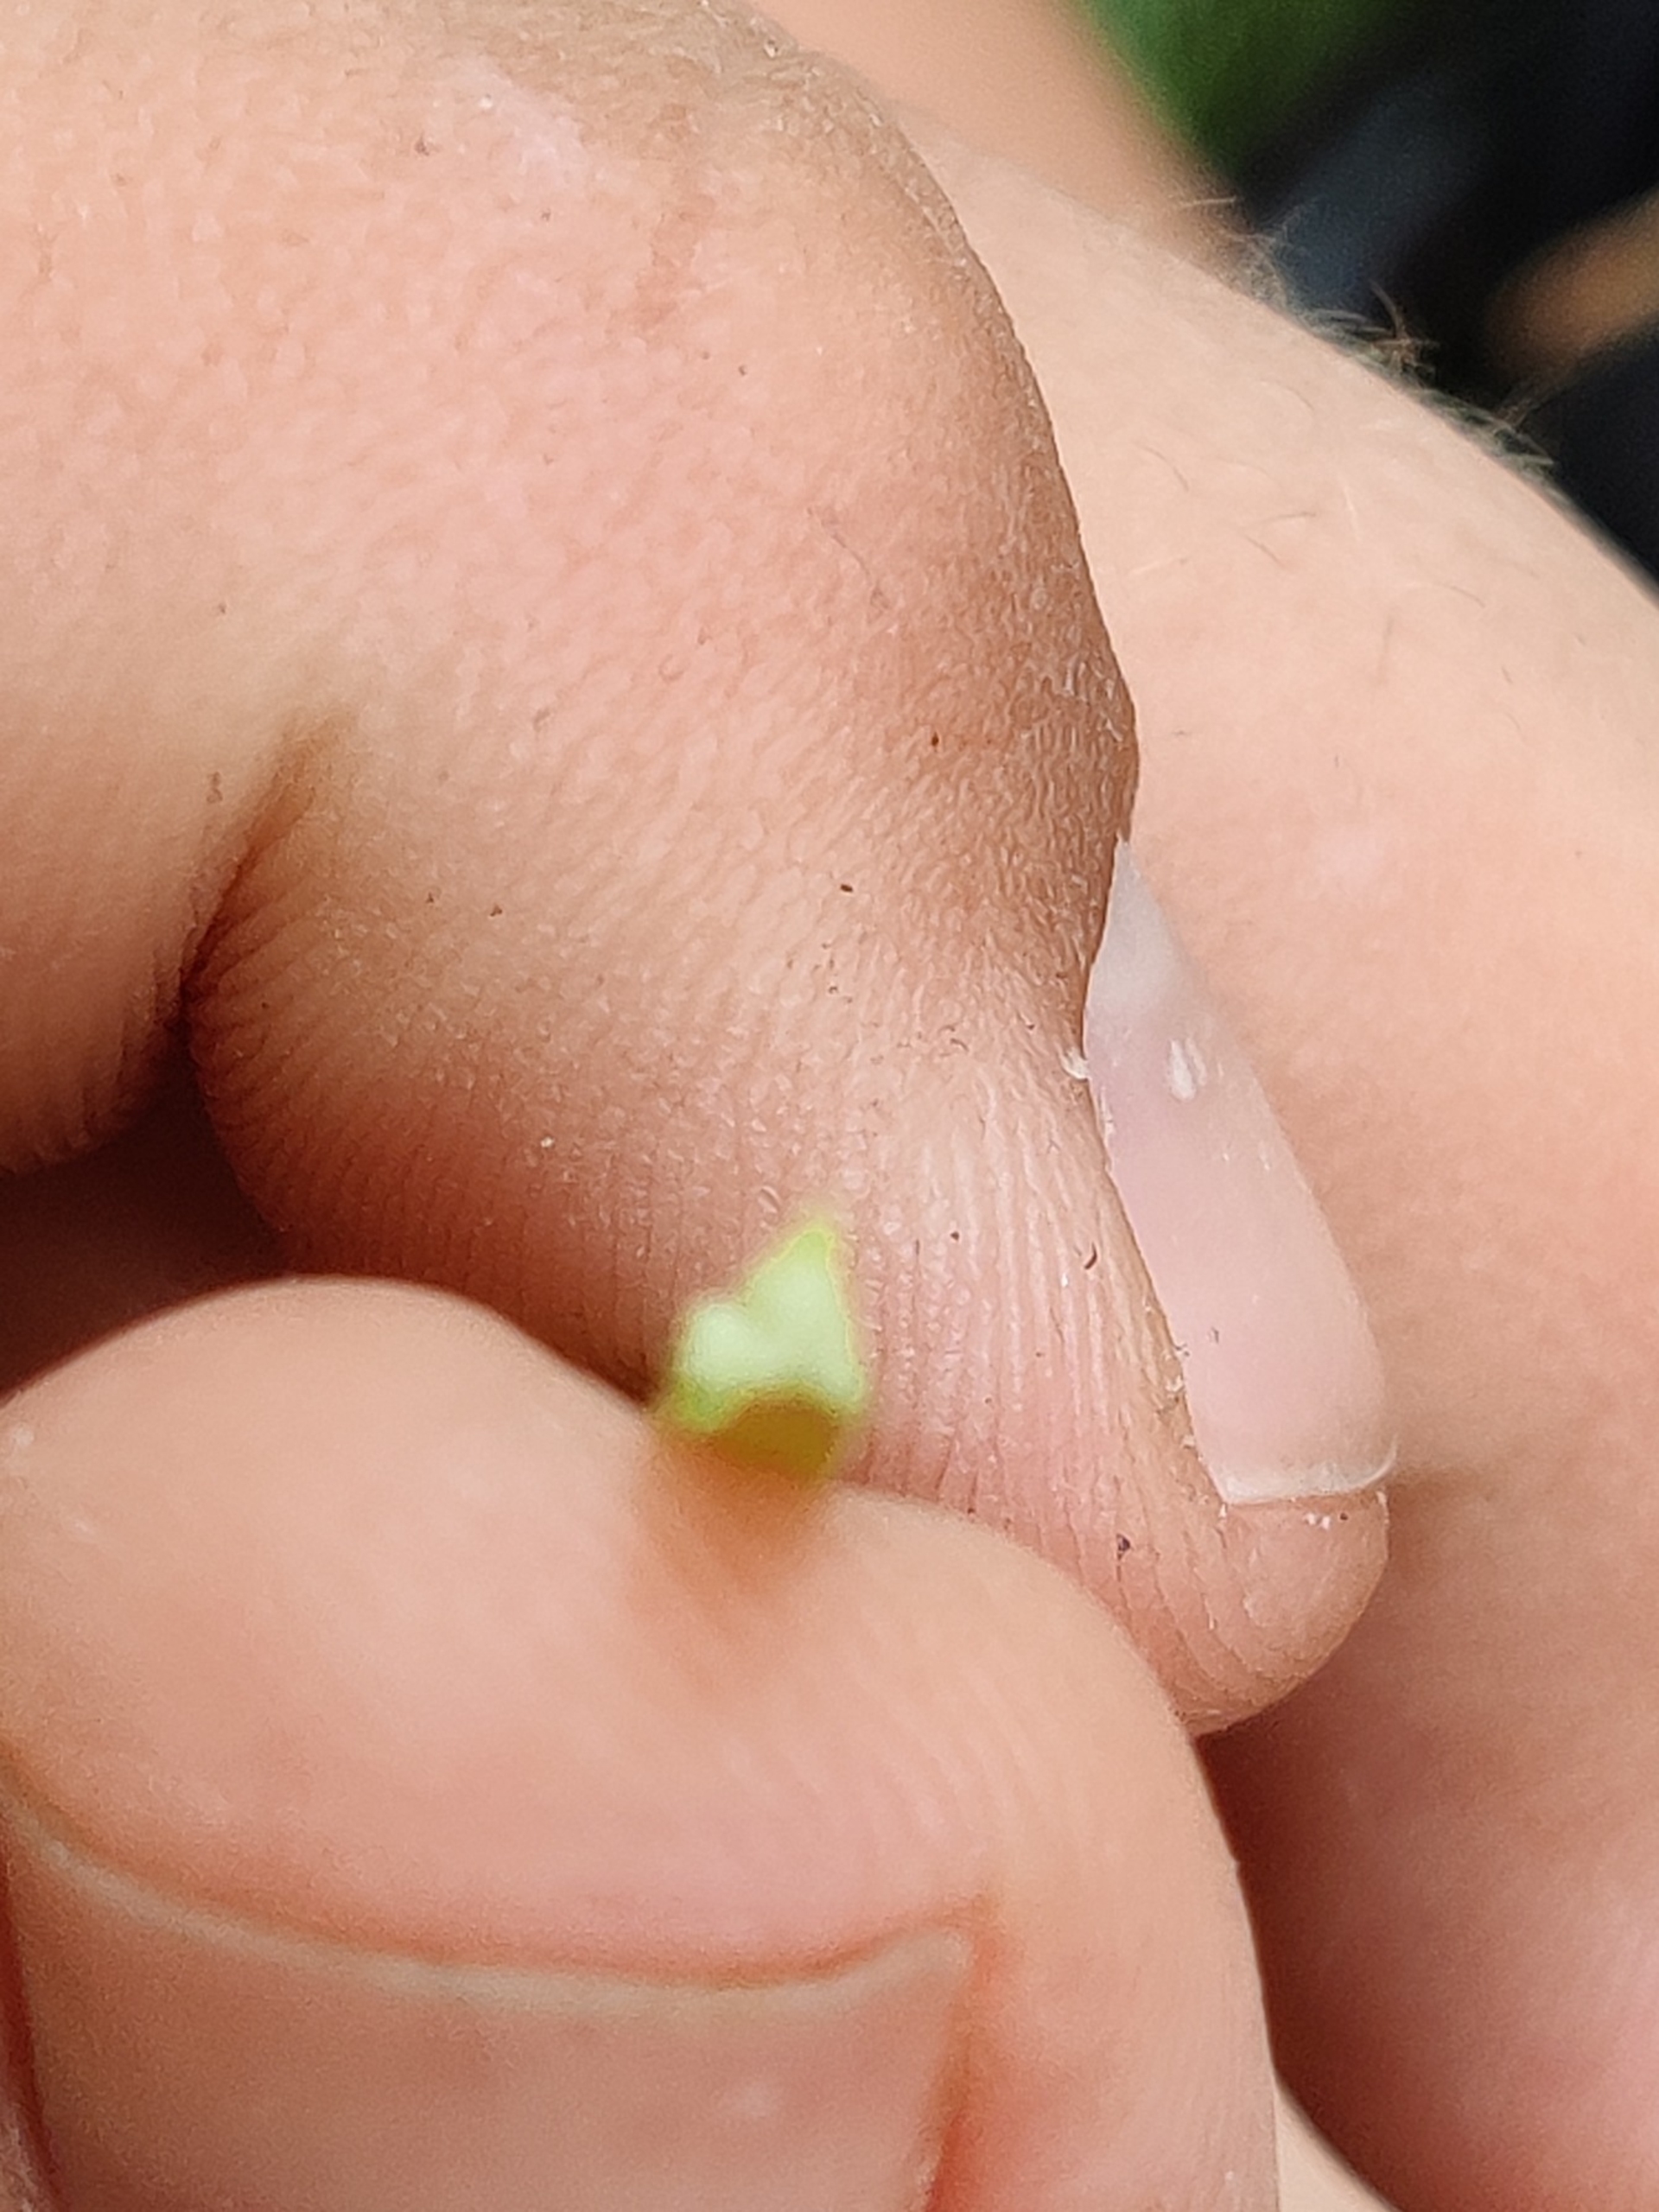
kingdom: Plantae
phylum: Tracheophyta
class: Liliopsida
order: Poales
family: Cyperaceae
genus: Bolboschoenus
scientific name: Bolboschoenus maritimus
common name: Strand-kogleaks
